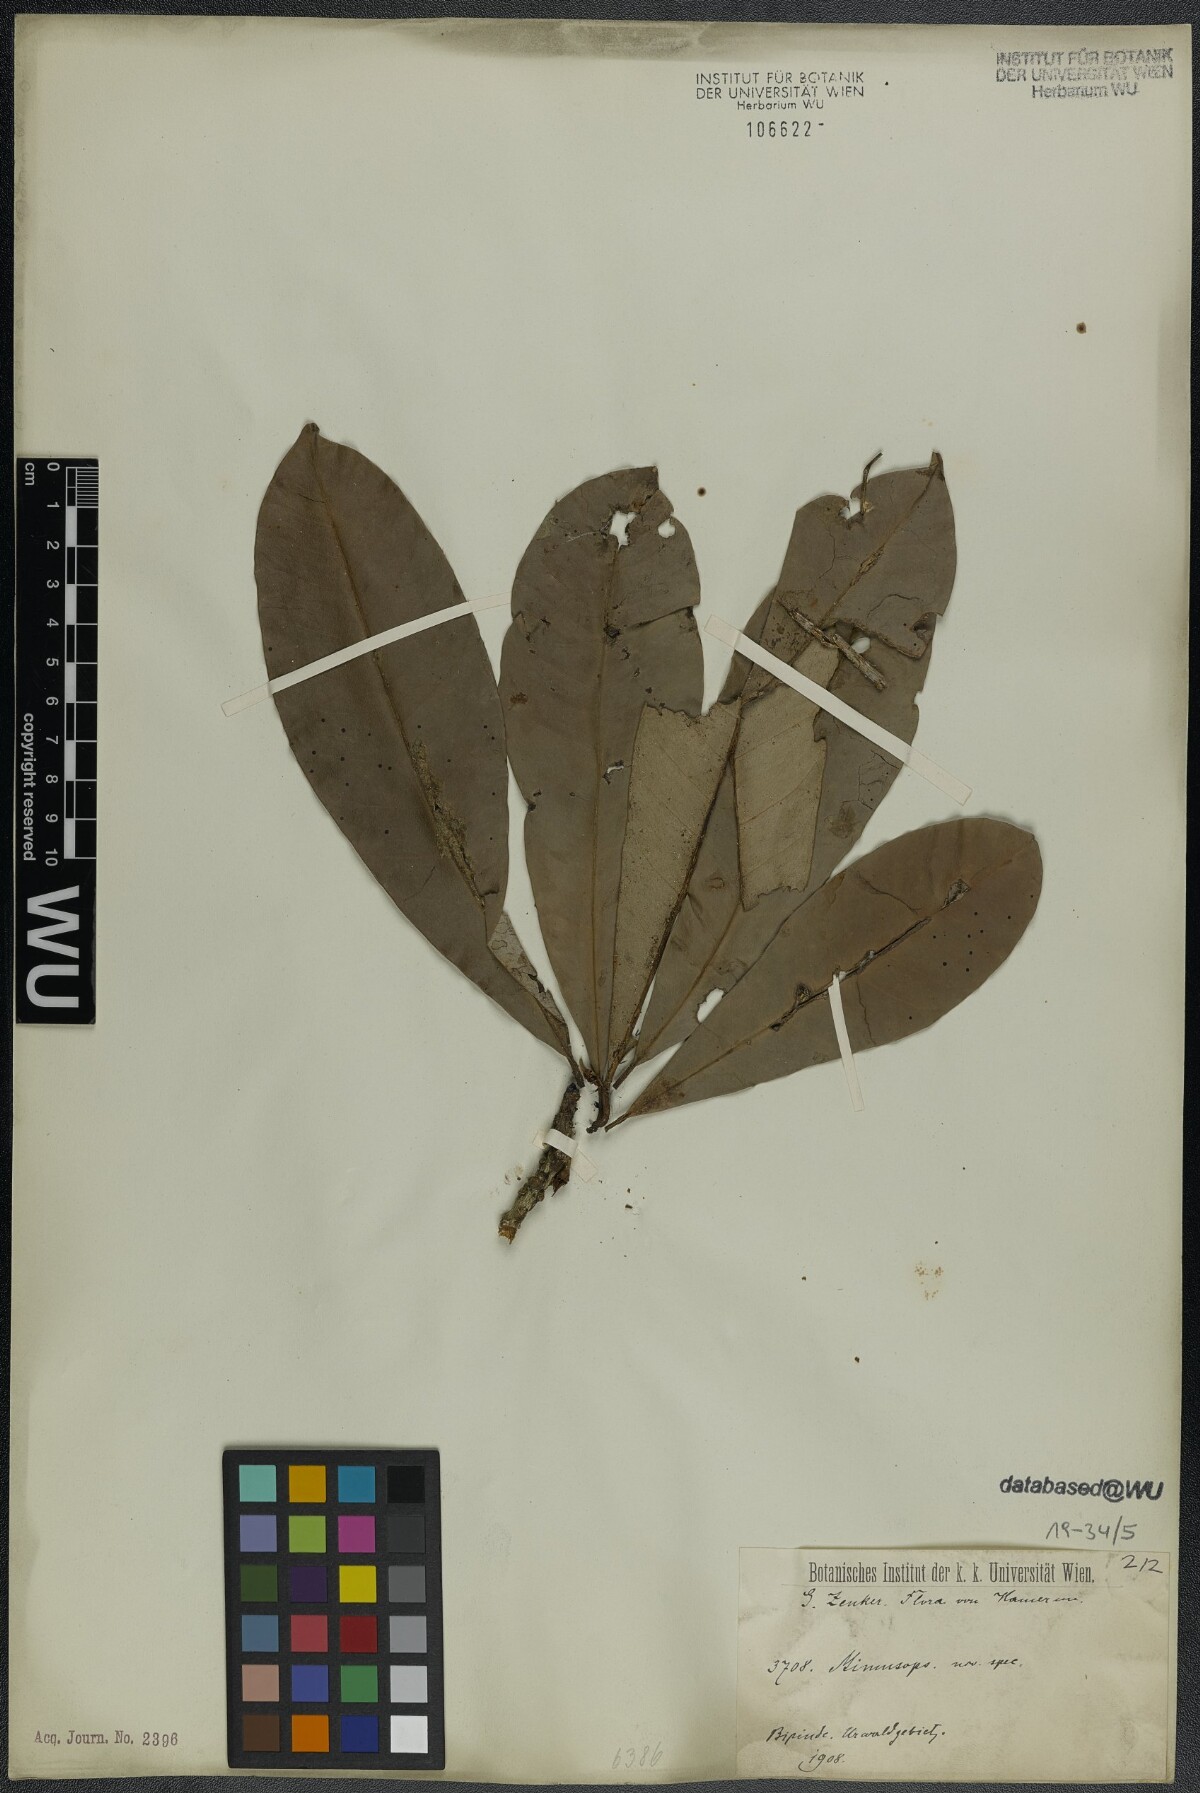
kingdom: Plantae
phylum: Tracheophyta
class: Magnoliopsida
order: Ericales
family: Sapotaceae
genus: Mimusops
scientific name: Mimusops
